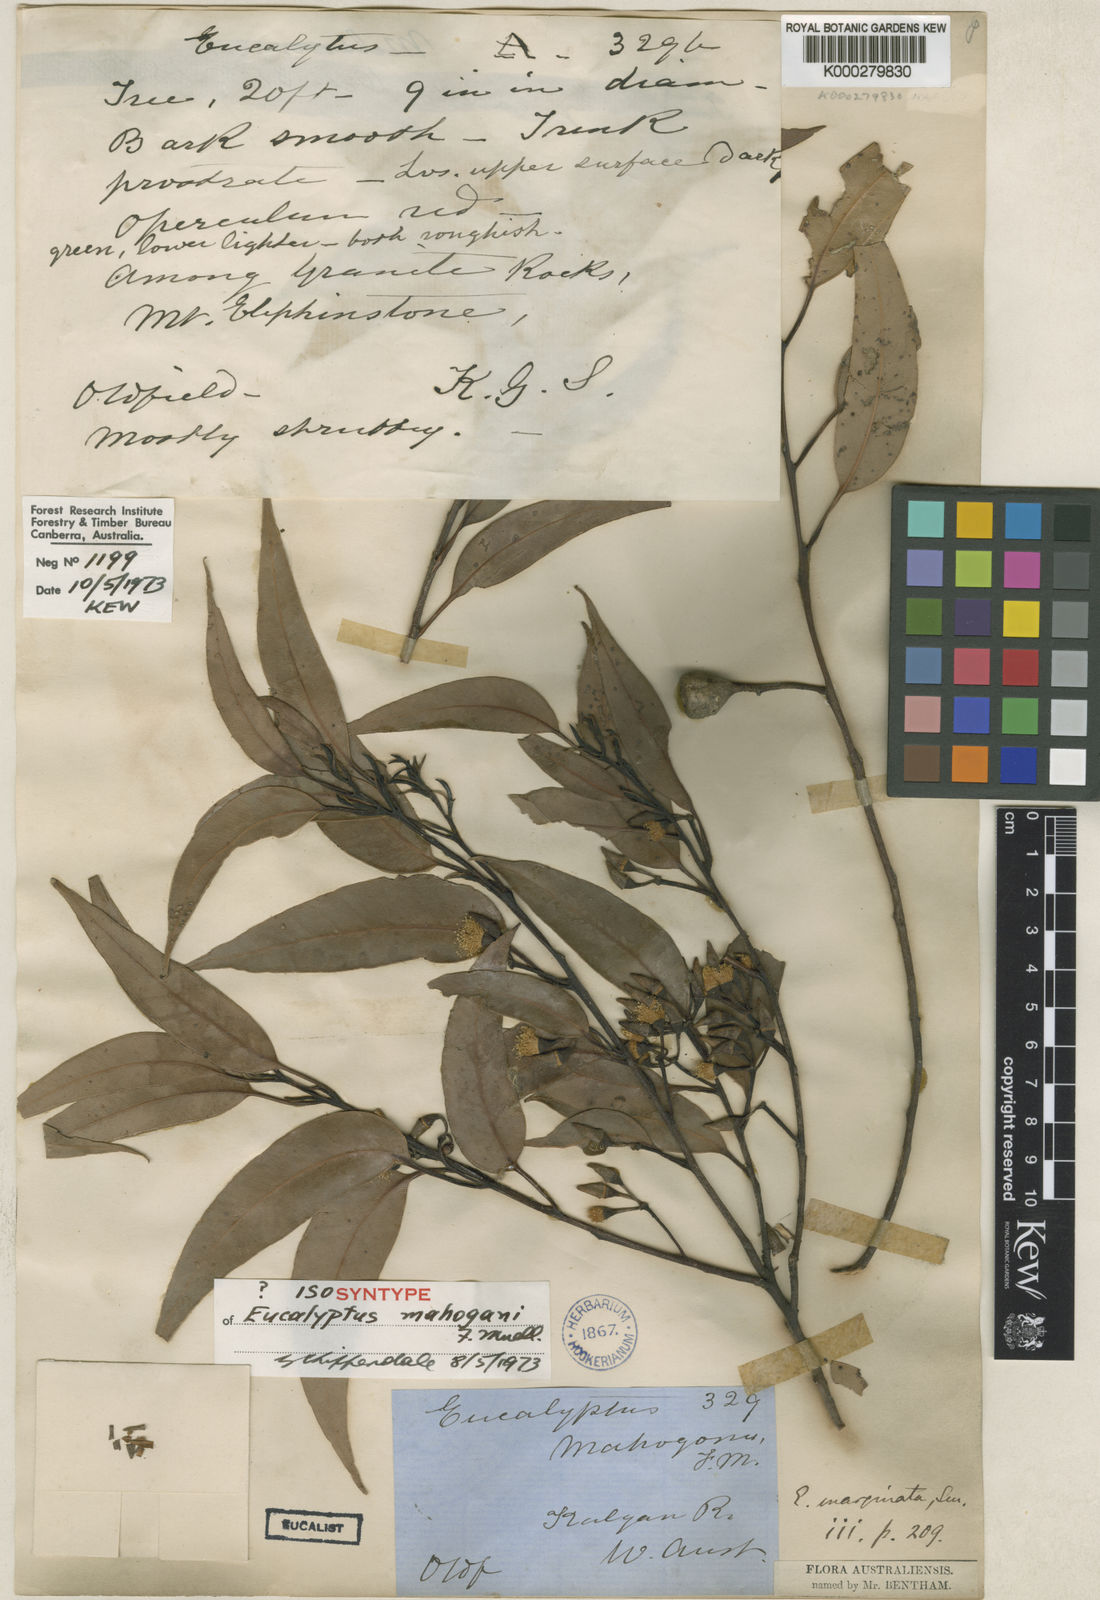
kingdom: Plantae
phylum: Tracheophyta
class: Magnoliopsida
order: Myrtales
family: Myrtaceae
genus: Eucalyptus
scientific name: Eucalyptus marginata
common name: Jarrah
